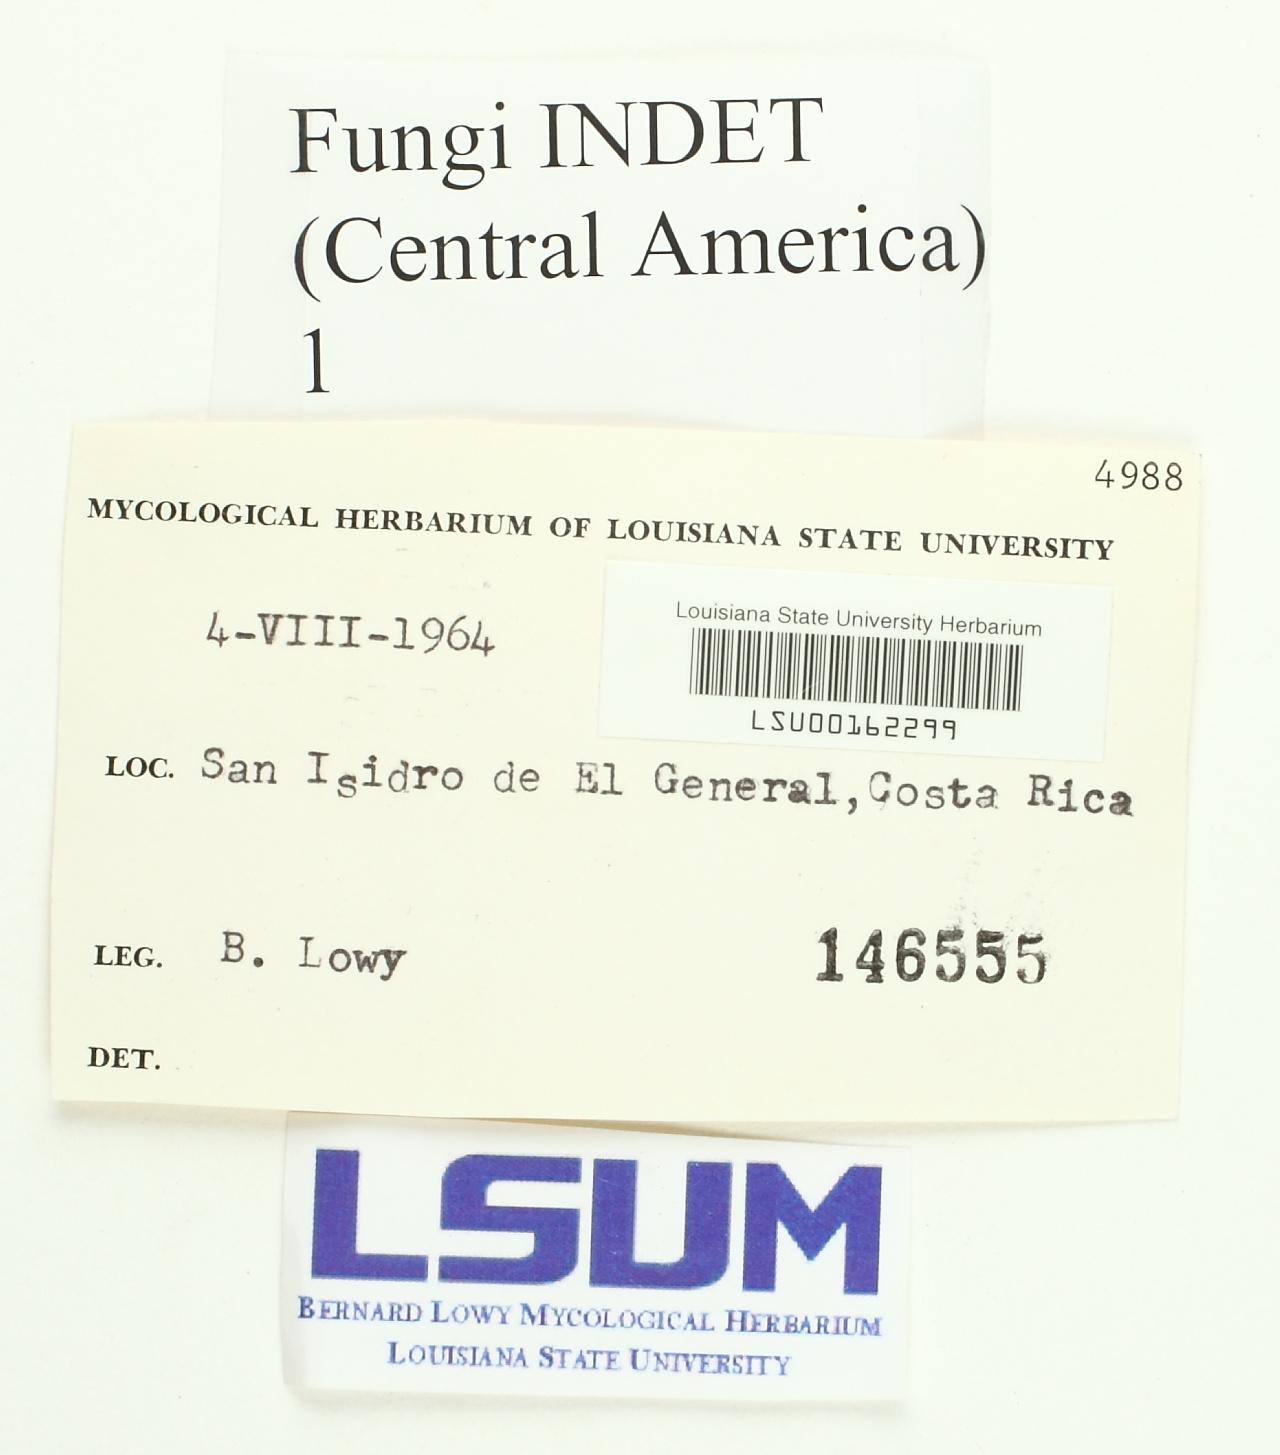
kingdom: Fungi
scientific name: Fungi
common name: Fungi
